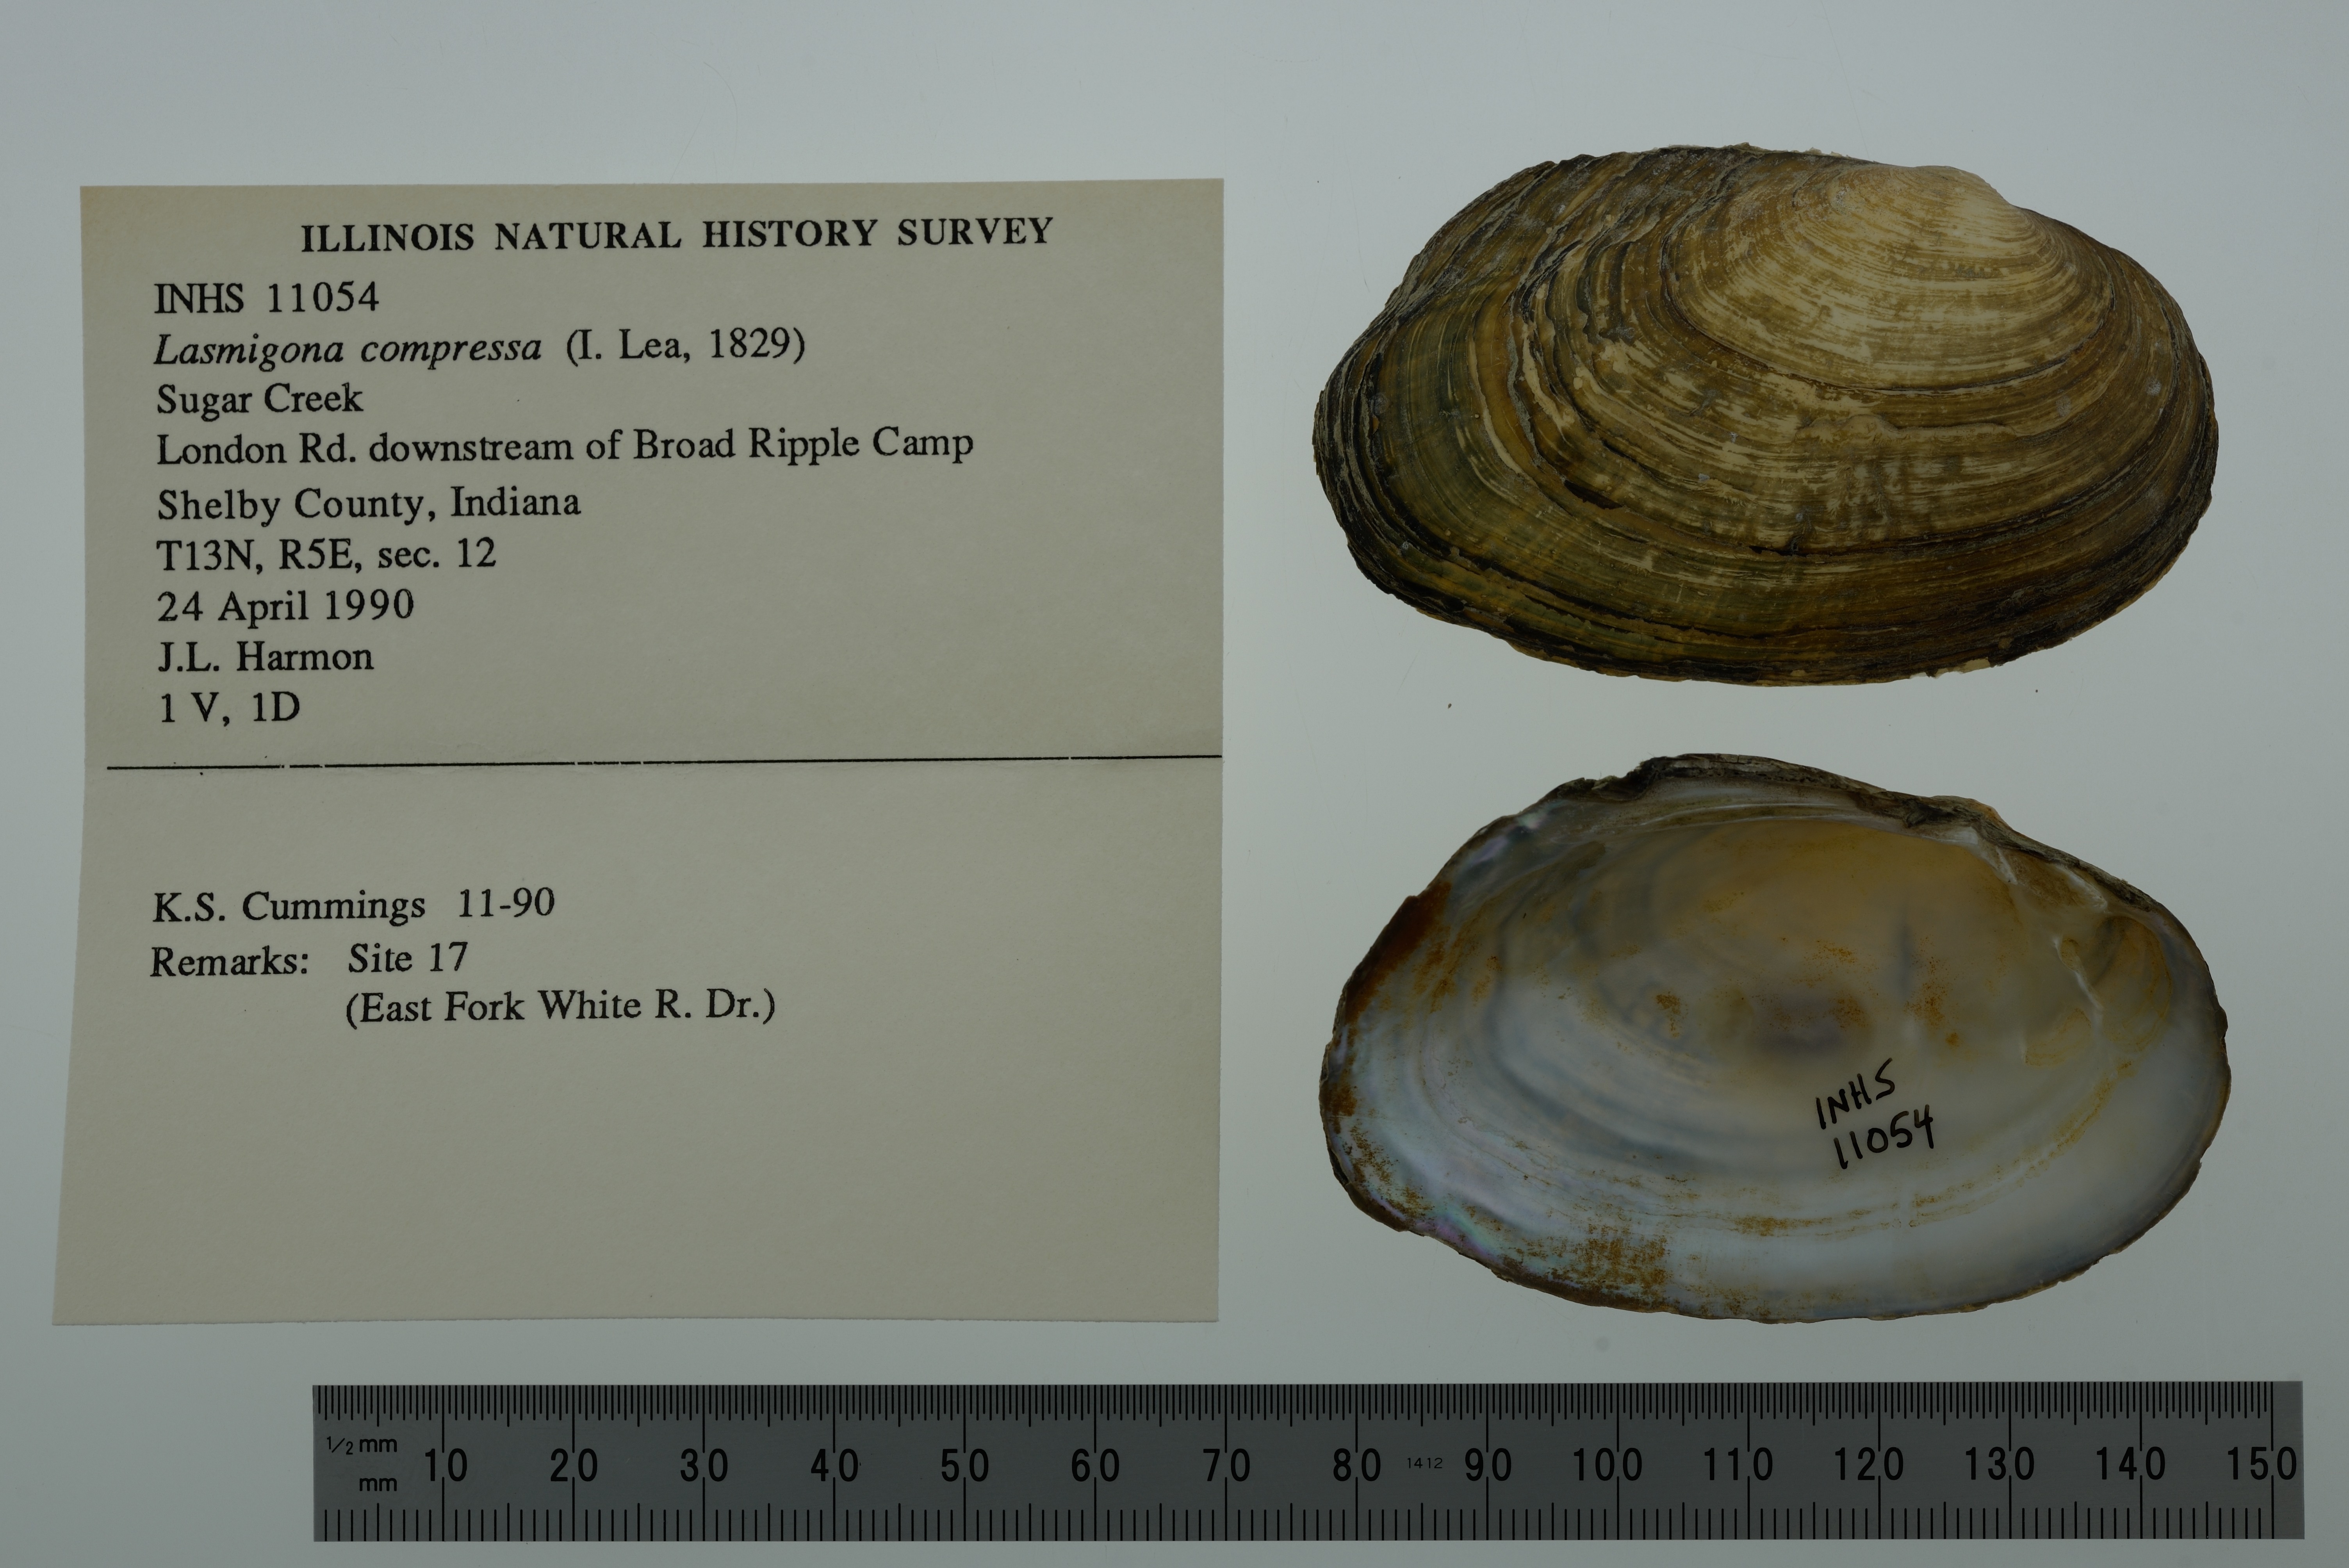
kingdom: Animalia
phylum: Mollusca
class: Bivalvia
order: Unionida
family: Unionidae
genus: Lasmigona
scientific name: Lasmigona compressa
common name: Creek heelsplitter
